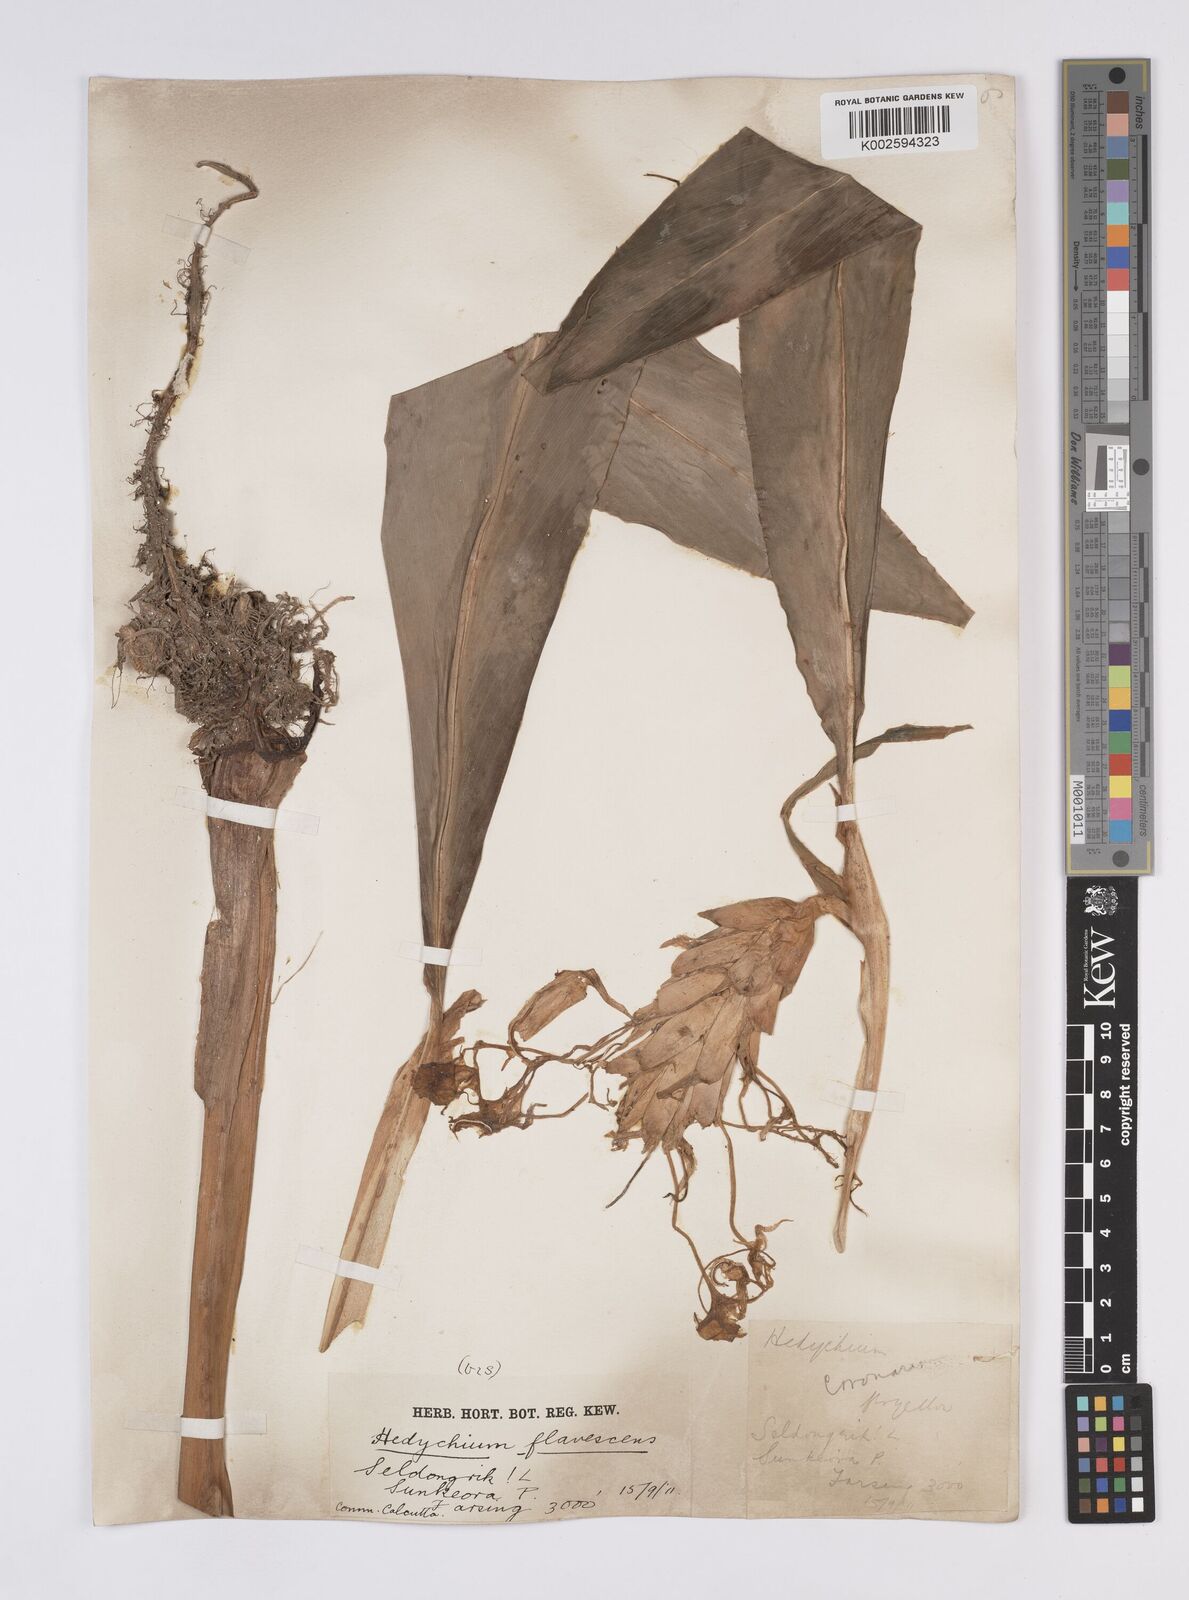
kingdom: Plantae
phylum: Tracheophyta
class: Liliopsida
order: Zingiberales
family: Zingiberaceae
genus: Hedychium
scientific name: Hedychium
